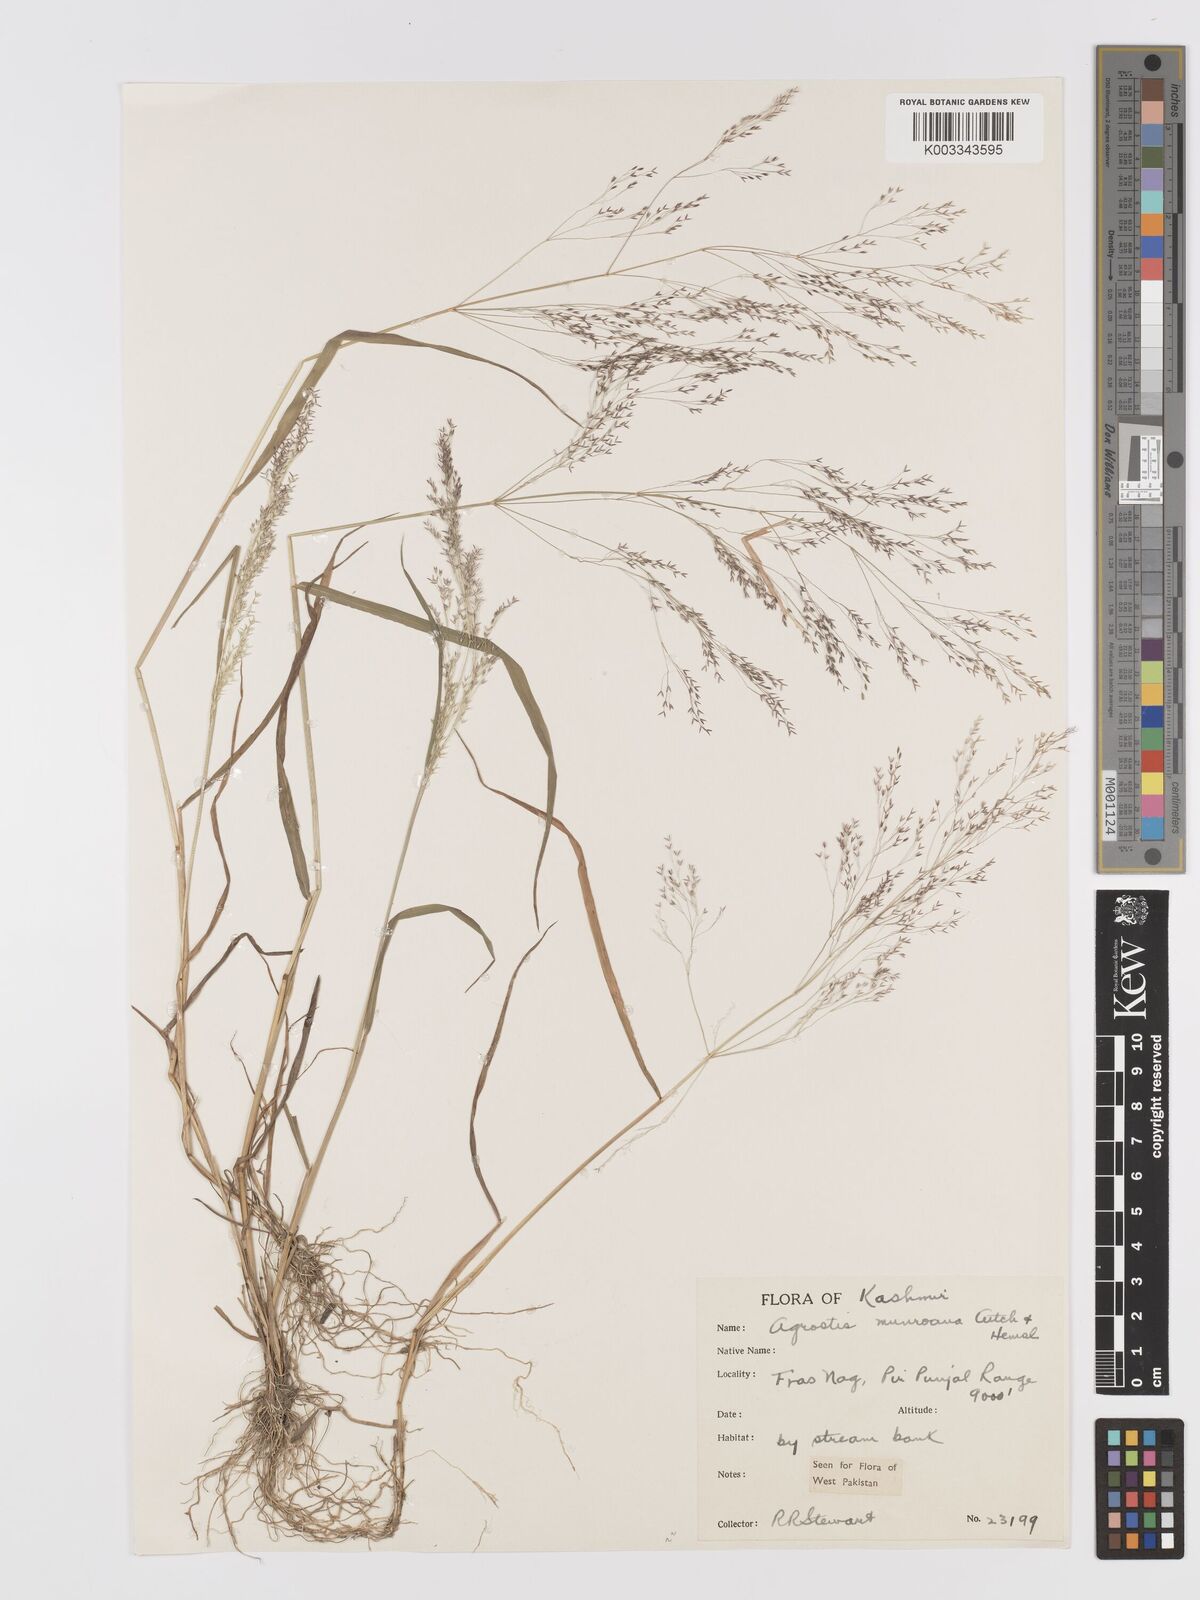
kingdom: Plantae
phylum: Tracheophyta
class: Liliopsida
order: Poales
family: Poaceae
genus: Agrostis
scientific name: Agrostis munroana
